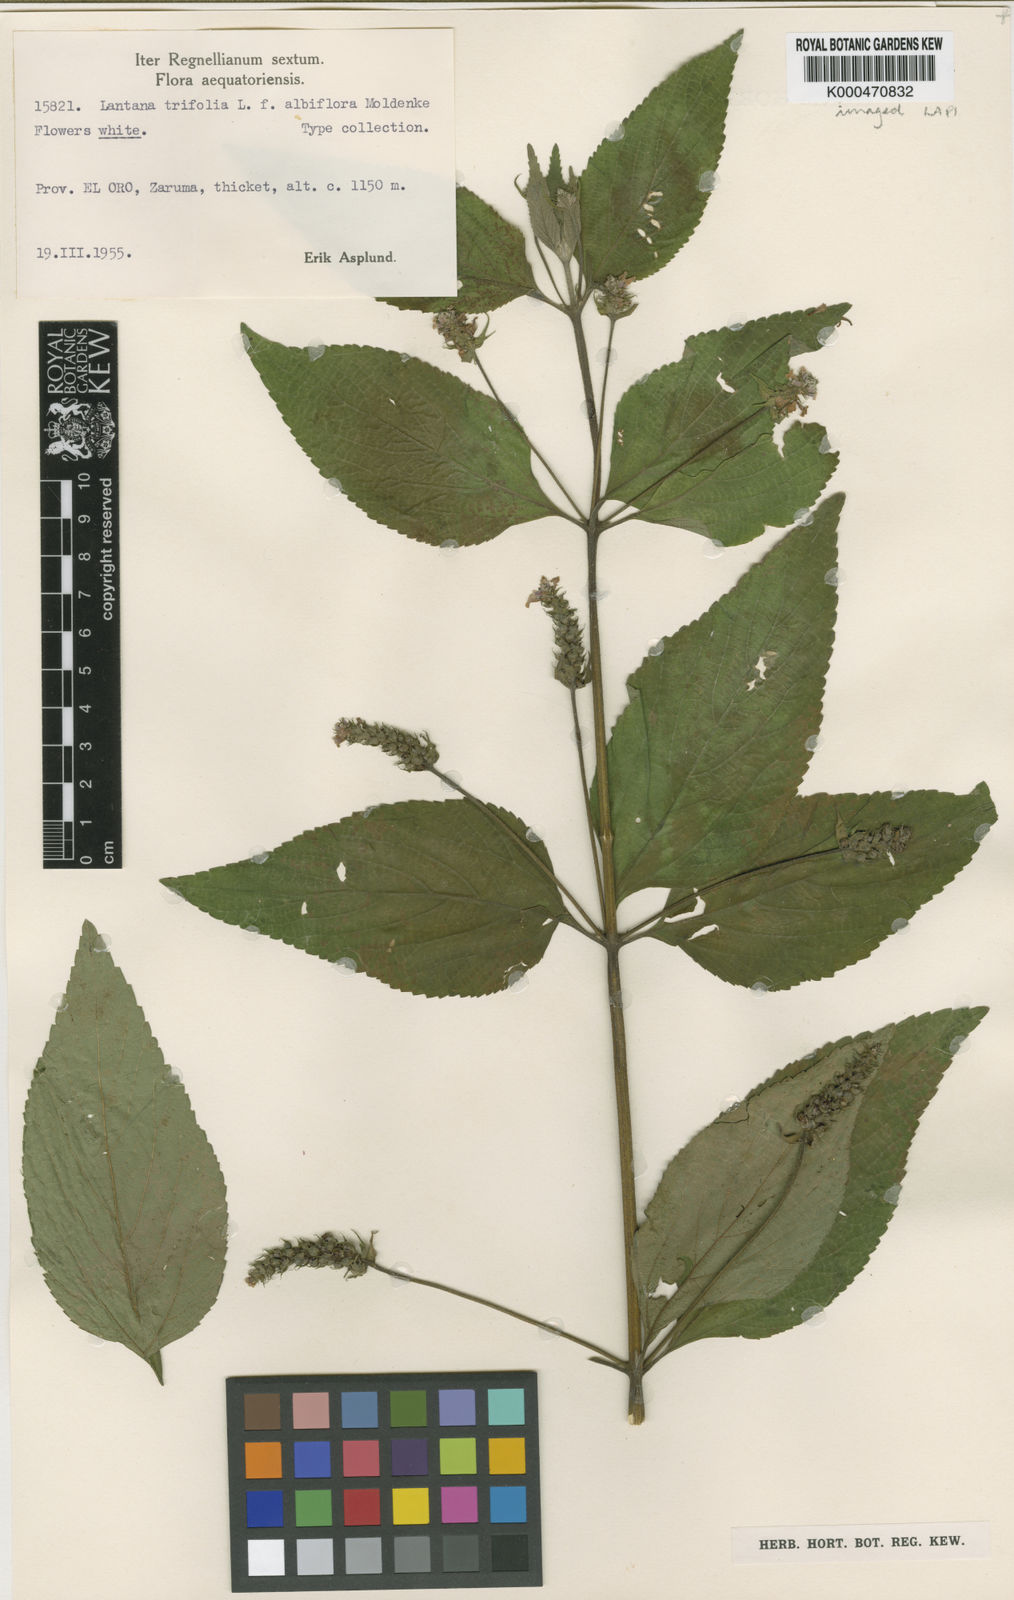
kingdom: Plantae
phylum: Tracheophyta
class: Magnoliopsida
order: Lamiales
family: Verbenaceae
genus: Lantana
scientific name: Lantana trifolia
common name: Sweet-sage
